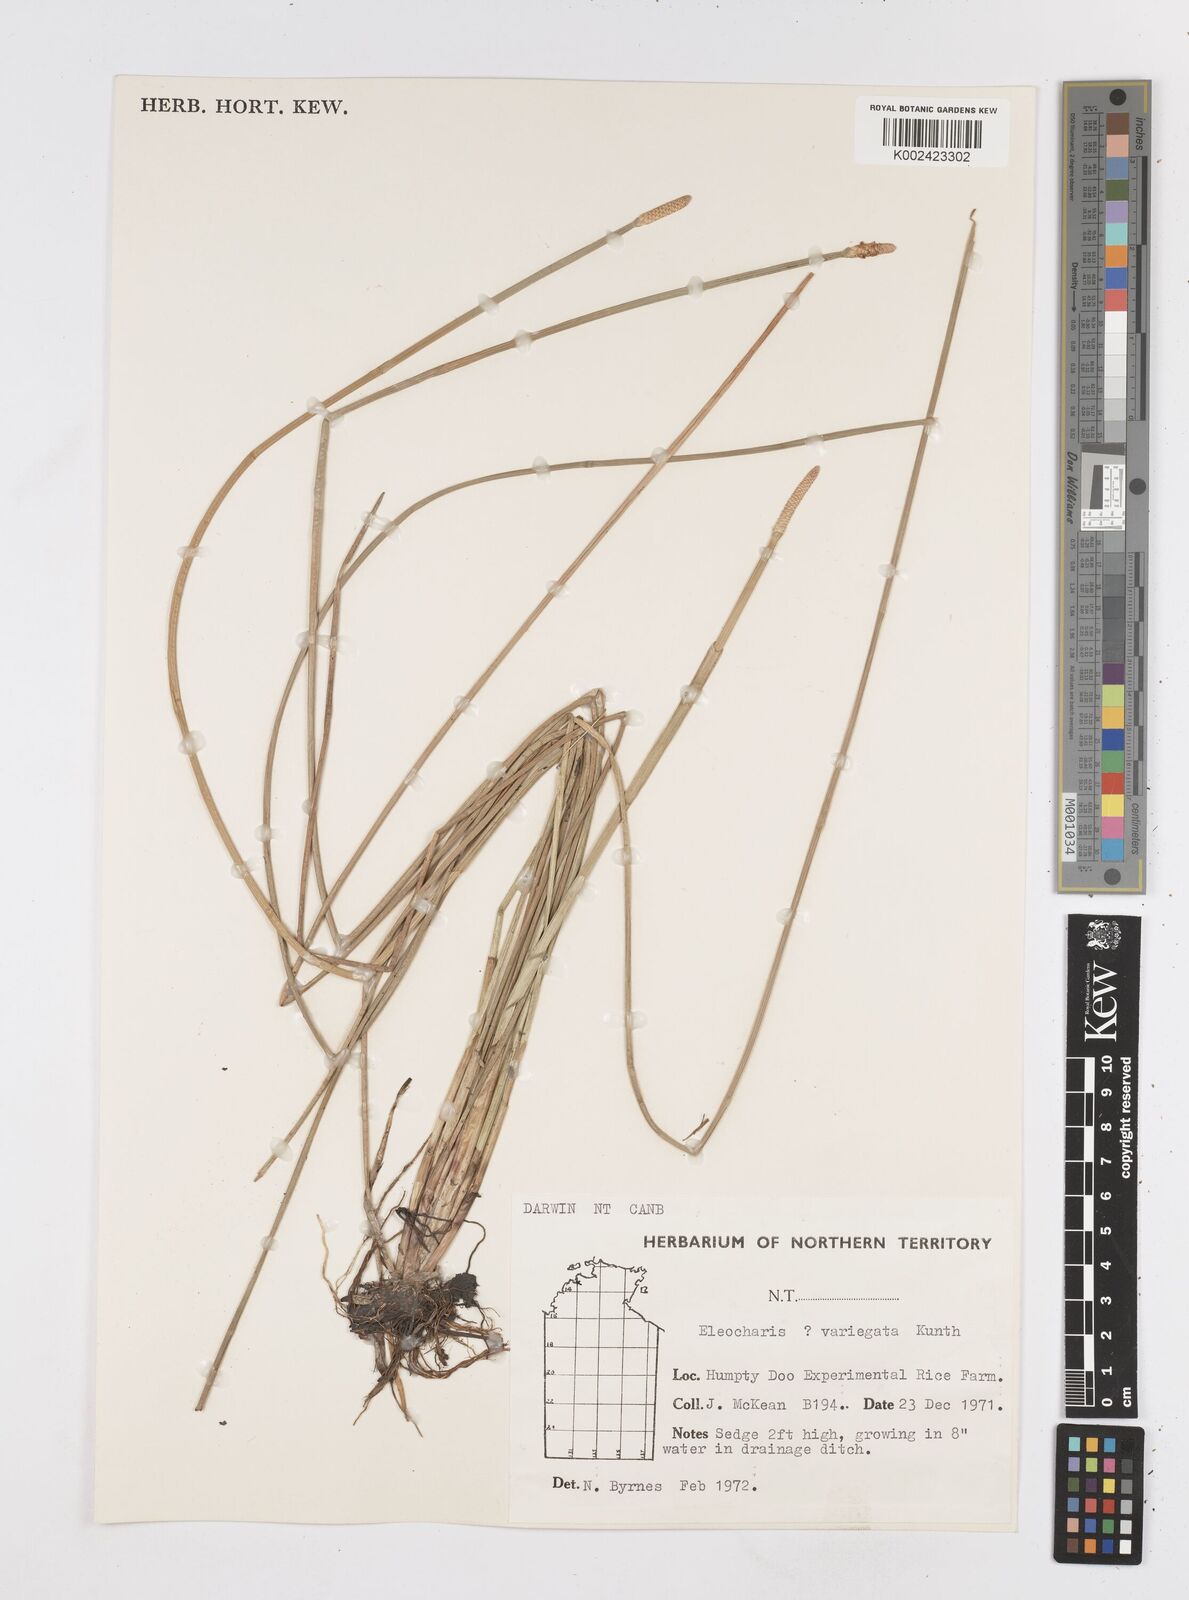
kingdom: Plantae
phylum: Tracheophyta
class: Liliopsida
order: Poales
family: Cyperaceae
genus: Eleocharis
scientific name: Eleocharis cylindrostachys
